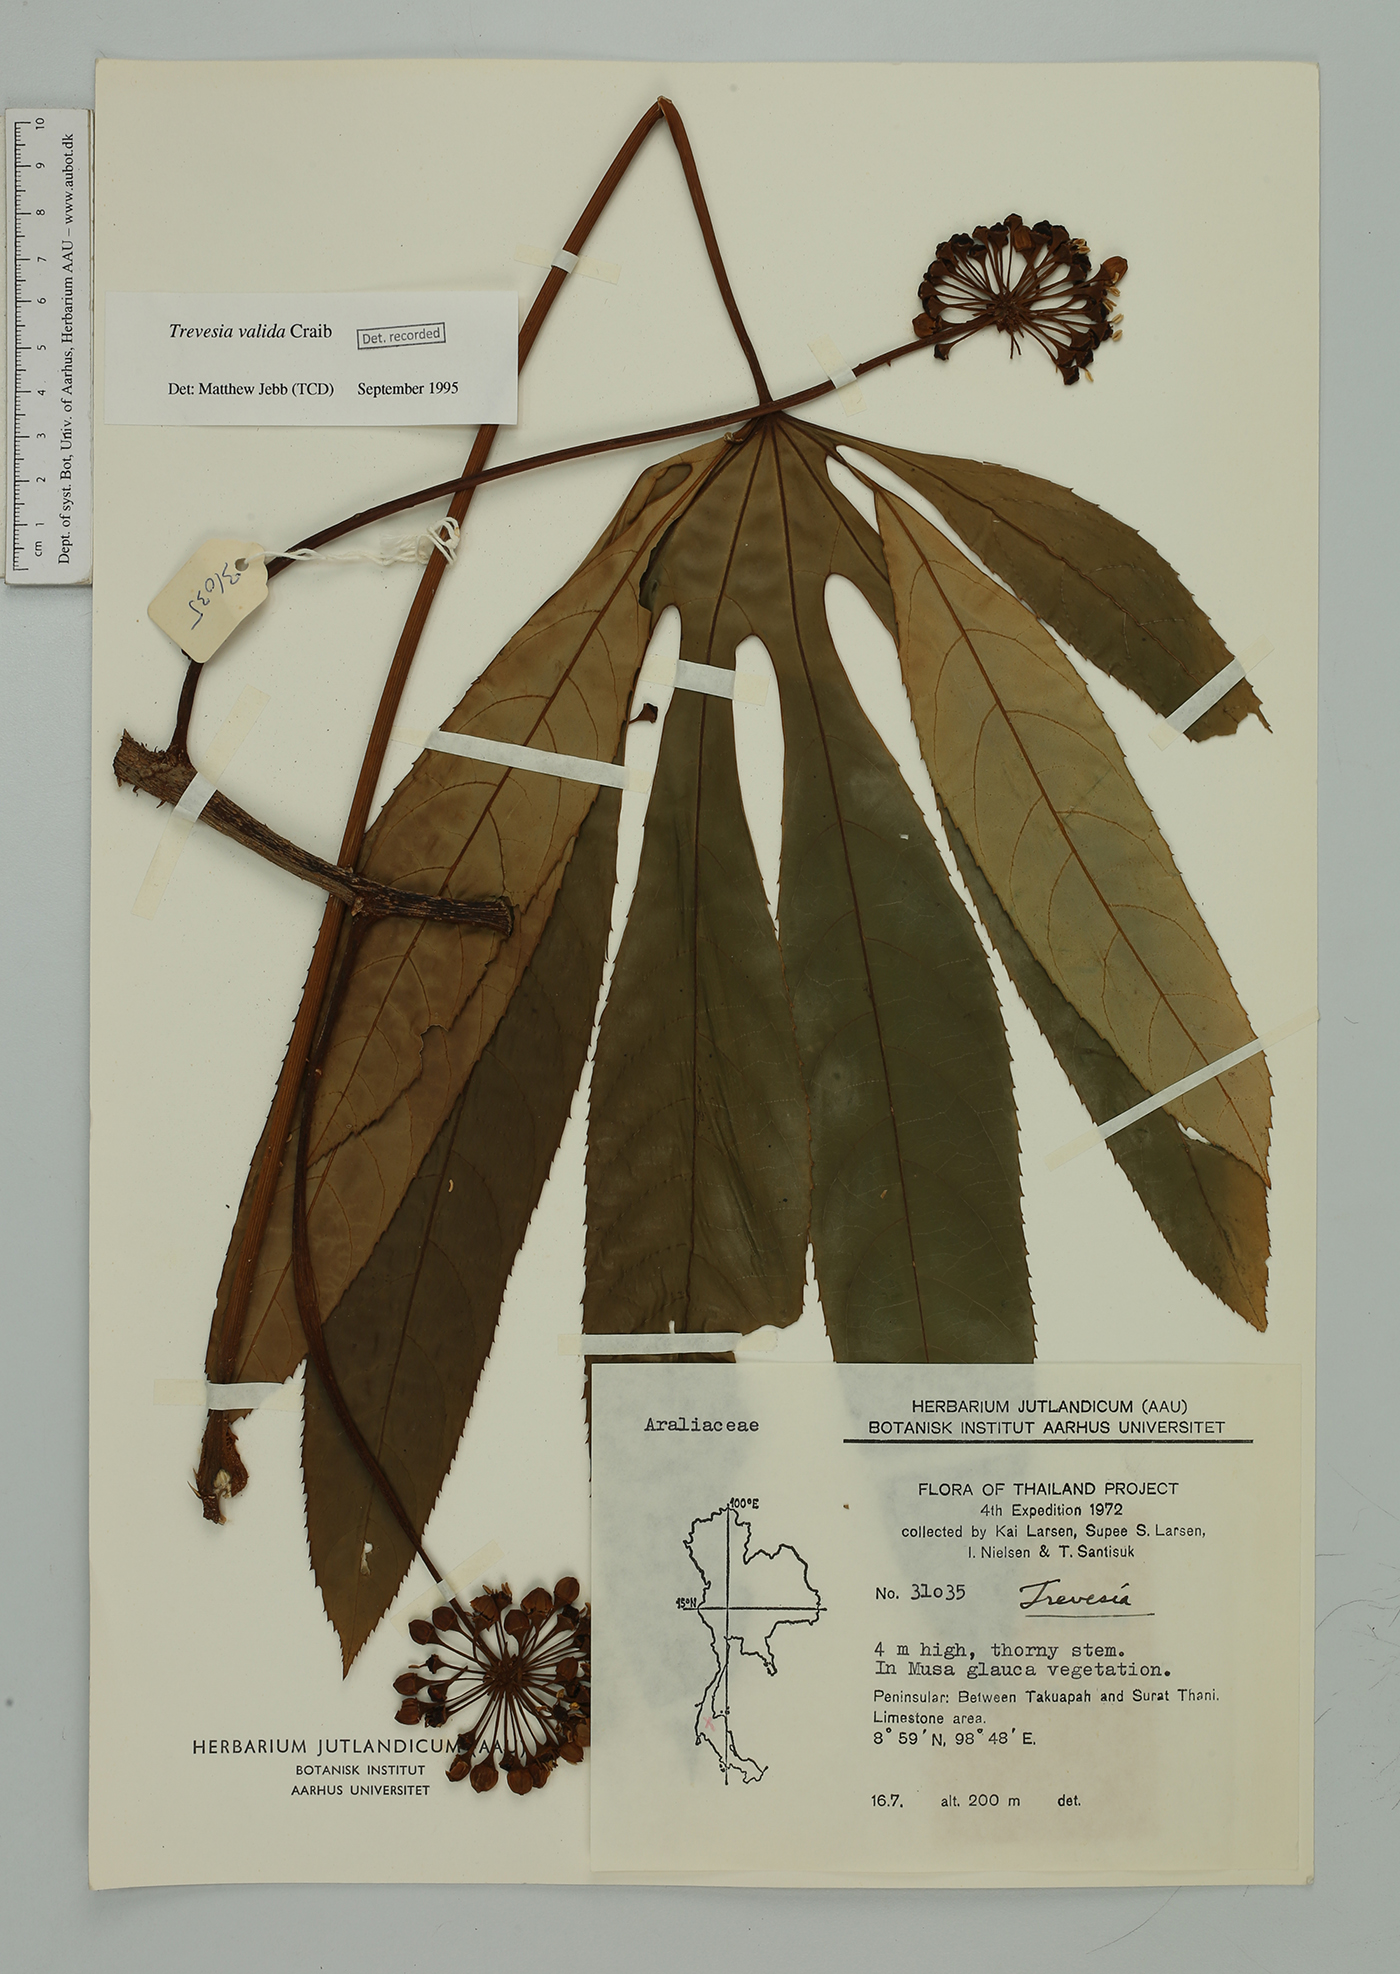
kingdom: Plantae
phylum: Tracheophyta
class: Magnoliopsida
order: Apiales
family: Araliaceae
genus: Trevesia
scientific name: Trevesia valida
